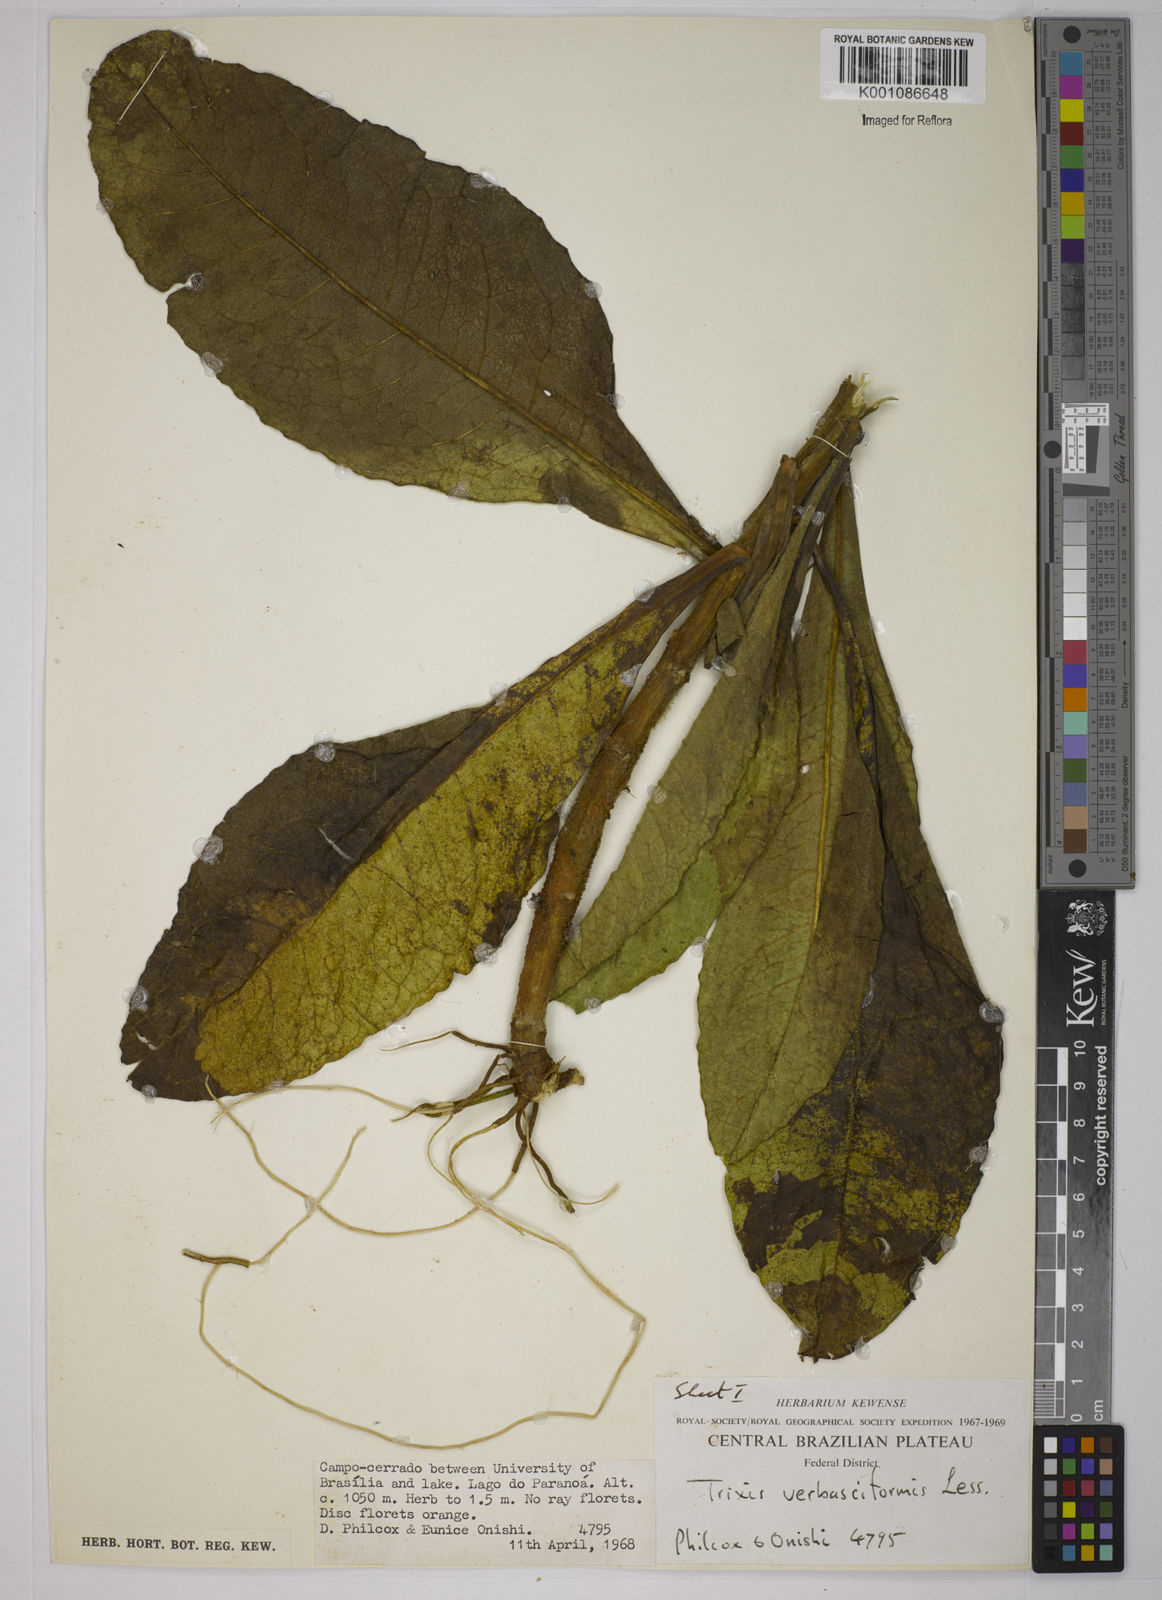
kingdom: Plantae
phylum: Tracheophyta
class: Magnoliopsida
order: Asterales
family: Asteraceae
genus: Trixis
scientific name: Trixis nobilis
